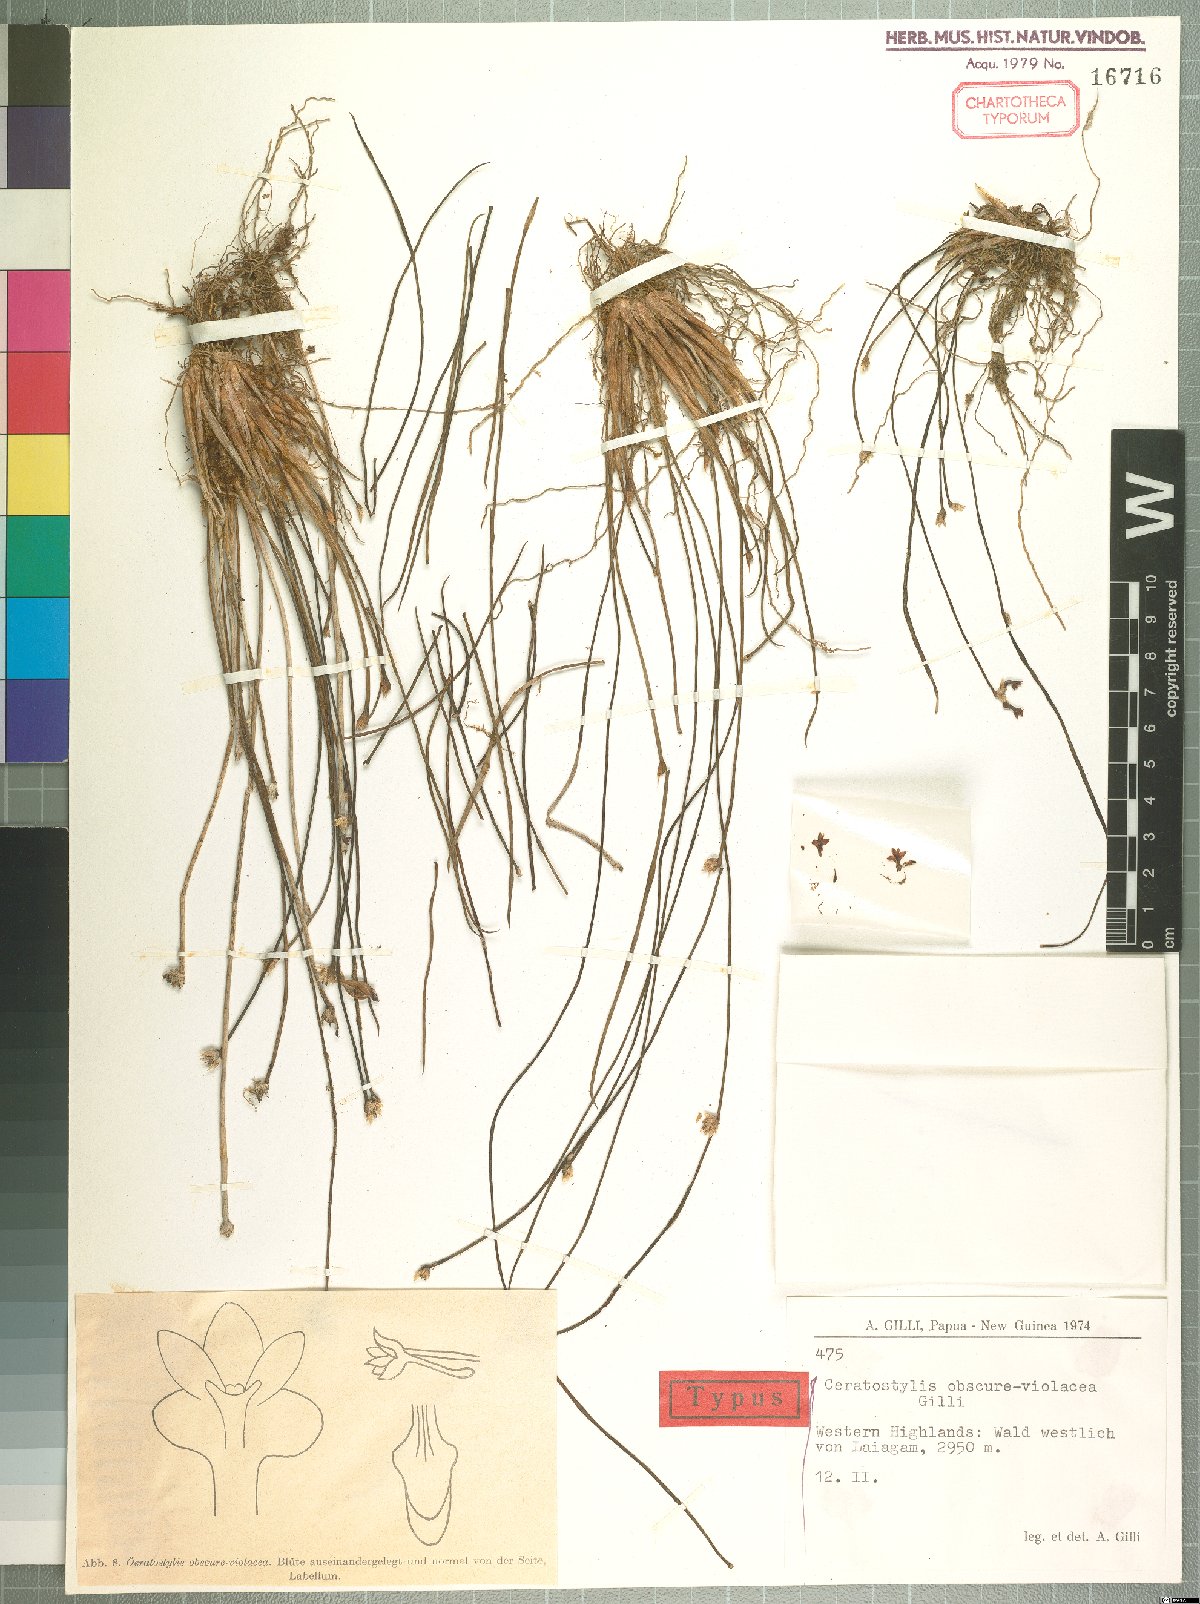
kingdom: Plantae
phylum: Tracheophyta
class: Liliopsida
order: Asparagales
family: Orchidaceae
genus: Ceratostylis
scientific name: Ceratostylis obscure-violacea
